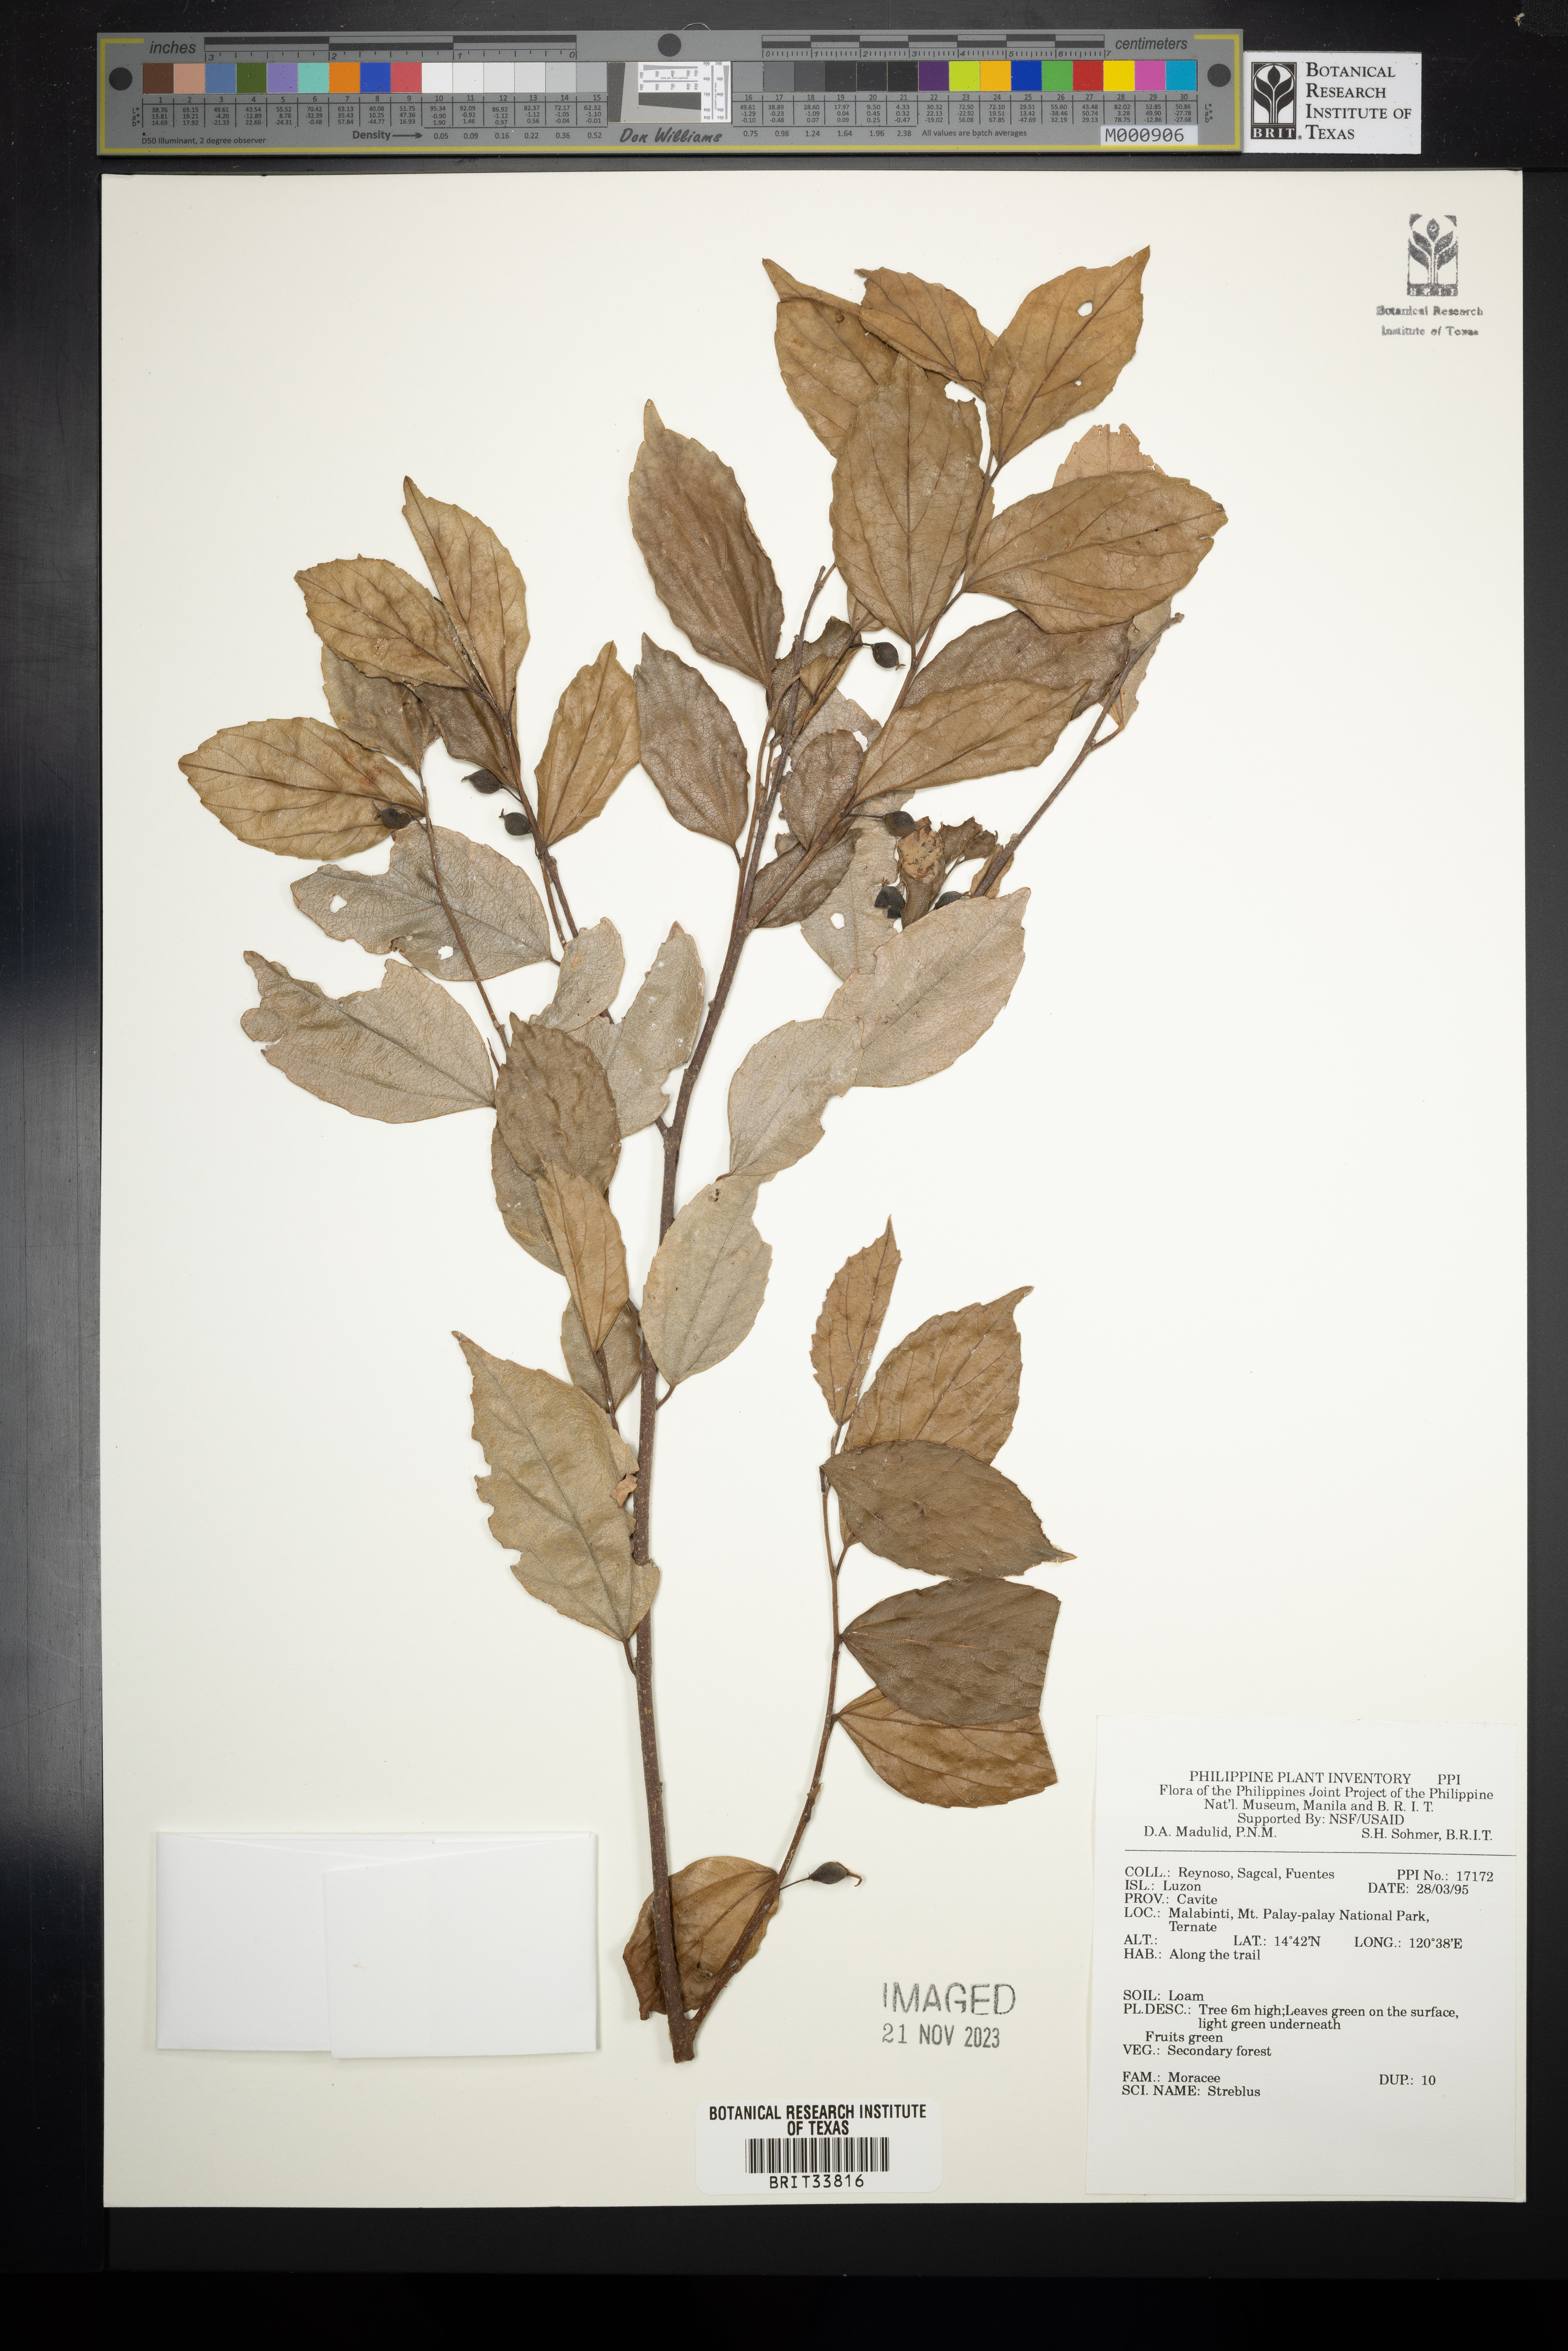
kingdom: Plantae
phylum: Tracheophyta
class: Magnoliopsida
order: Rosales
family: Moraceae
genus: Streblus
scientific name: Streblus
